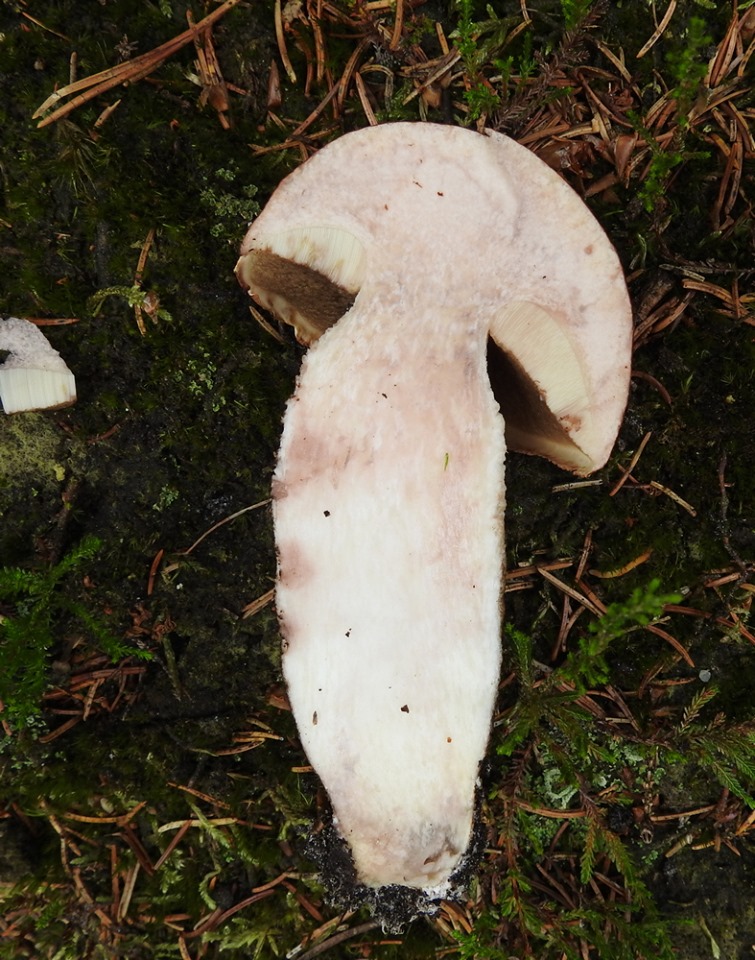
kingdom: Fungi
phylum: Basidiomycota
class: Agaricomycetes
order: Boletales
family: Boletaceae
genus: Leccinum
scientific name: Leccinum vulpinum
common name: fyrre-skælrørhat
